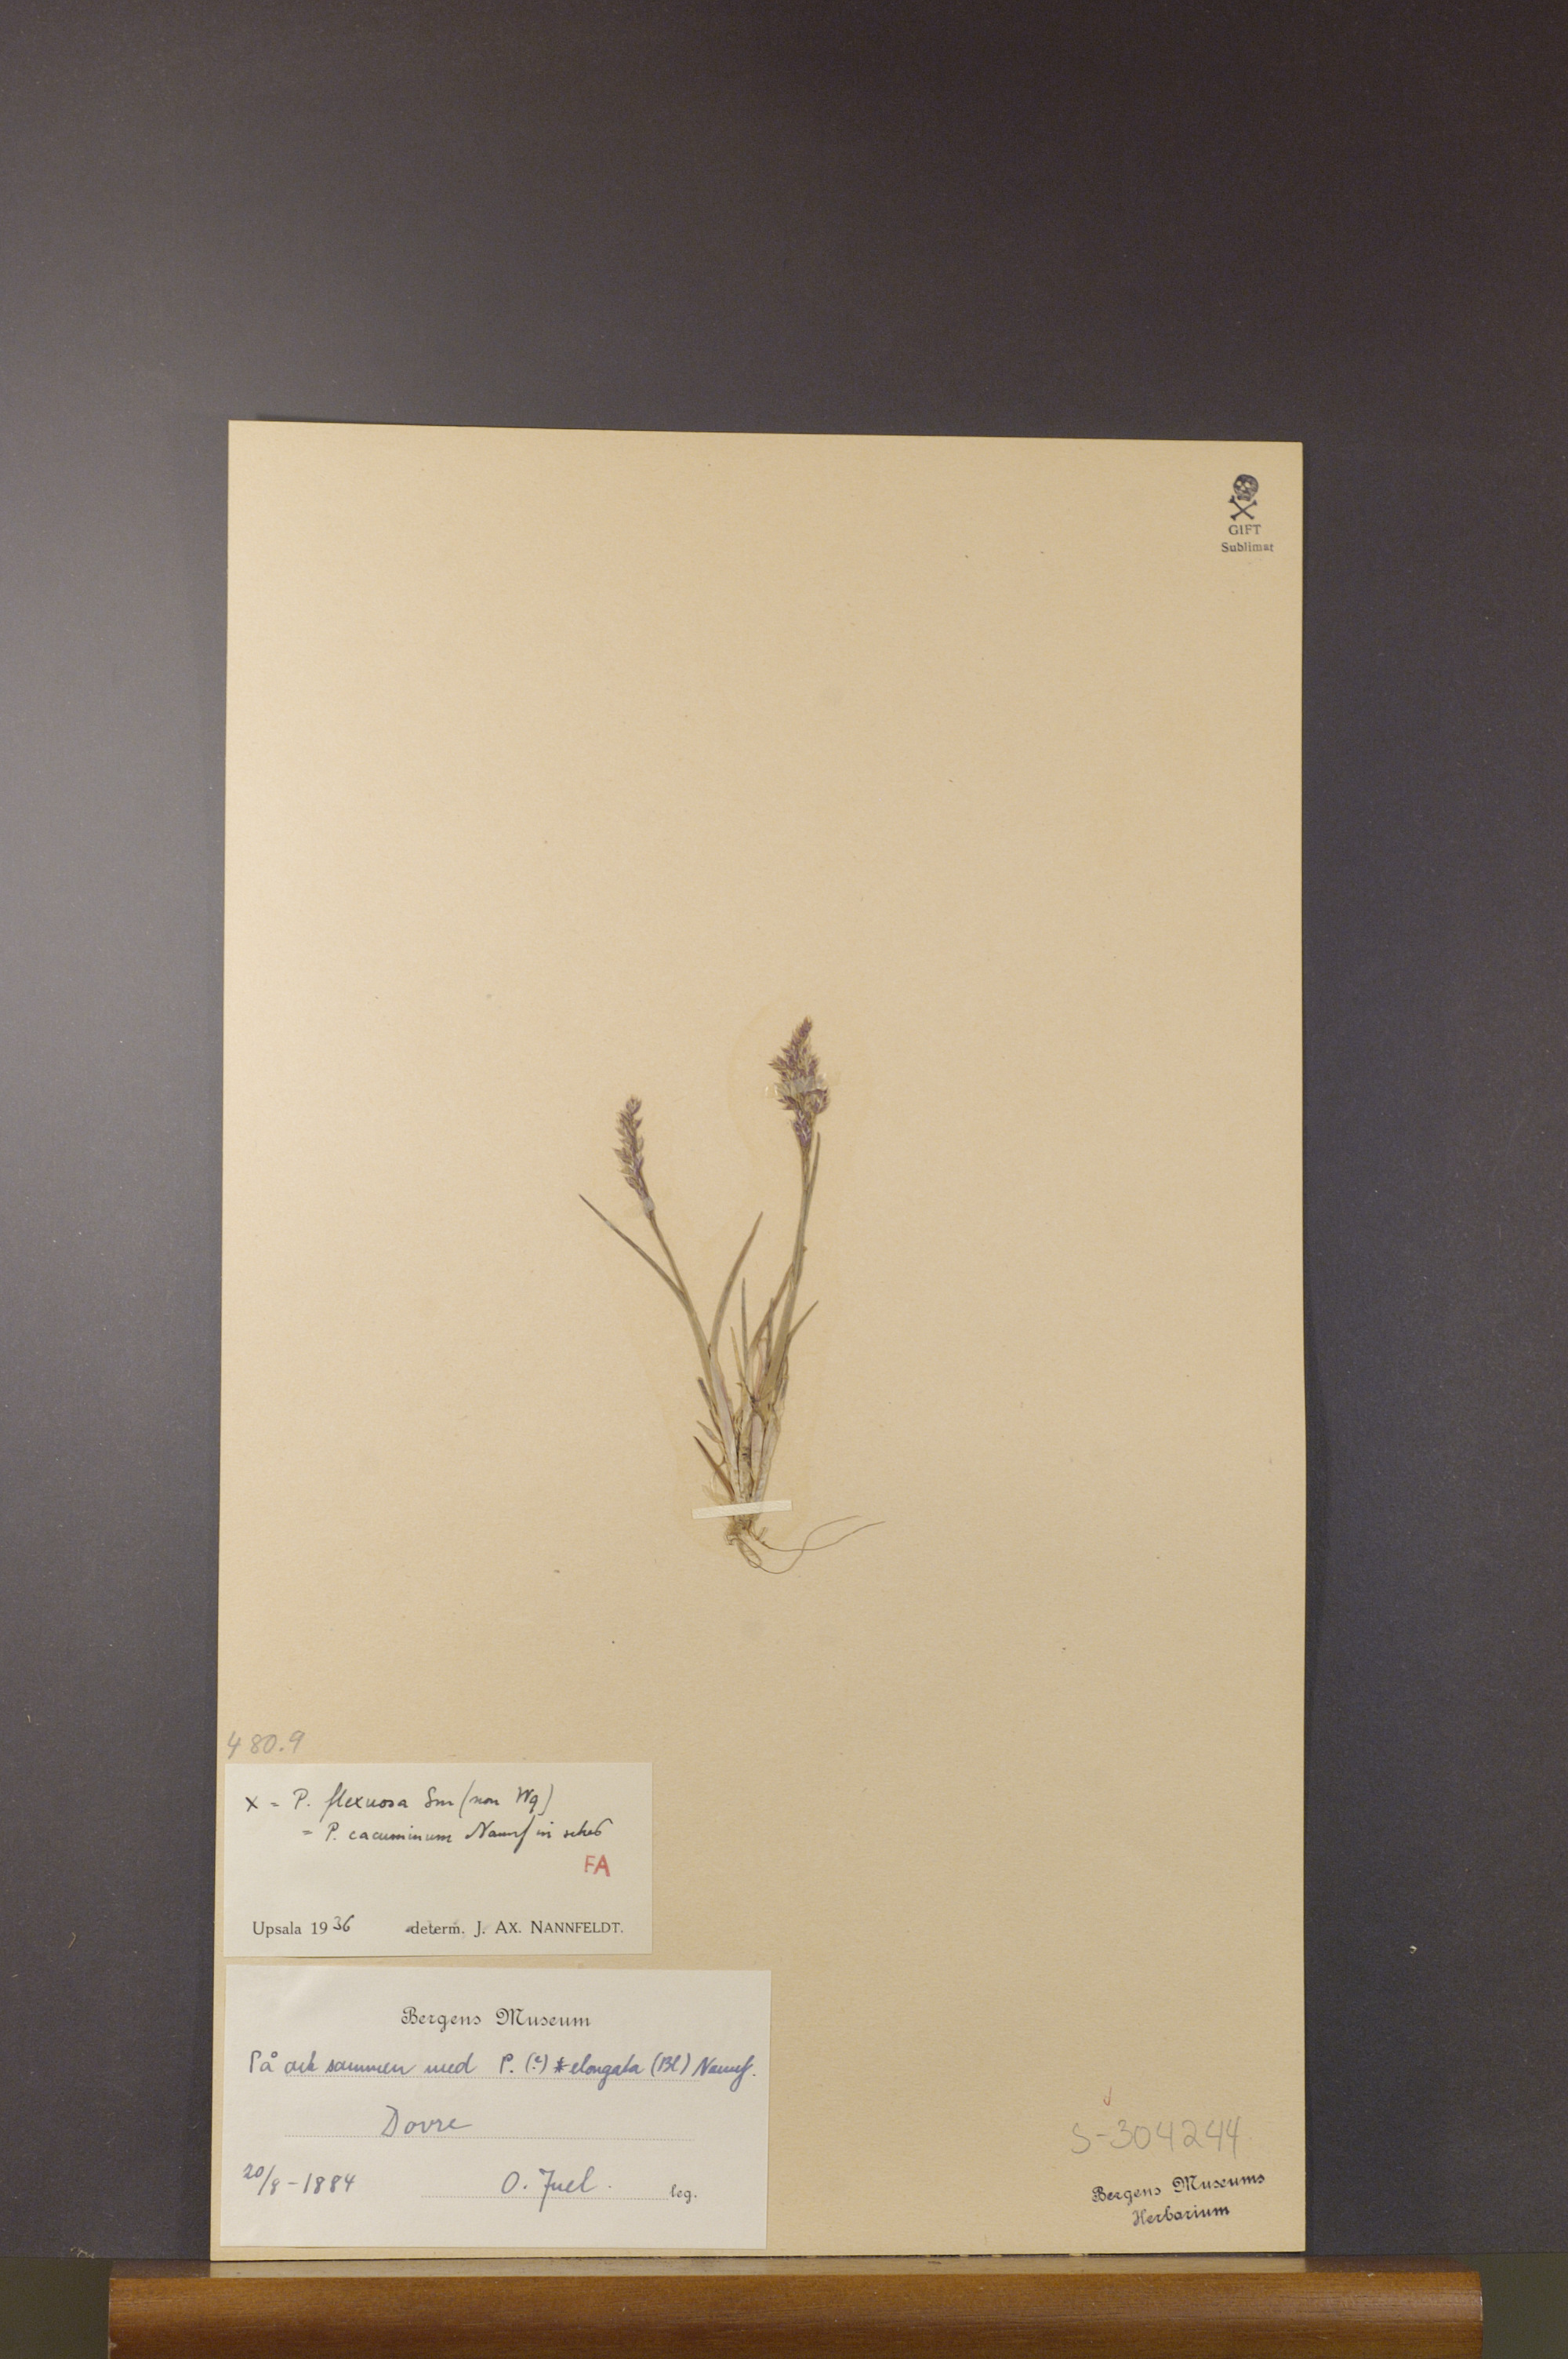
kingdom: Plantae
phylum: Tracheophyta
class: Liliopsida
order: Poales
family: Poaceae
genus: Poa
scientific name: Poa flexuosa
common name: Wavy meadow-grass
